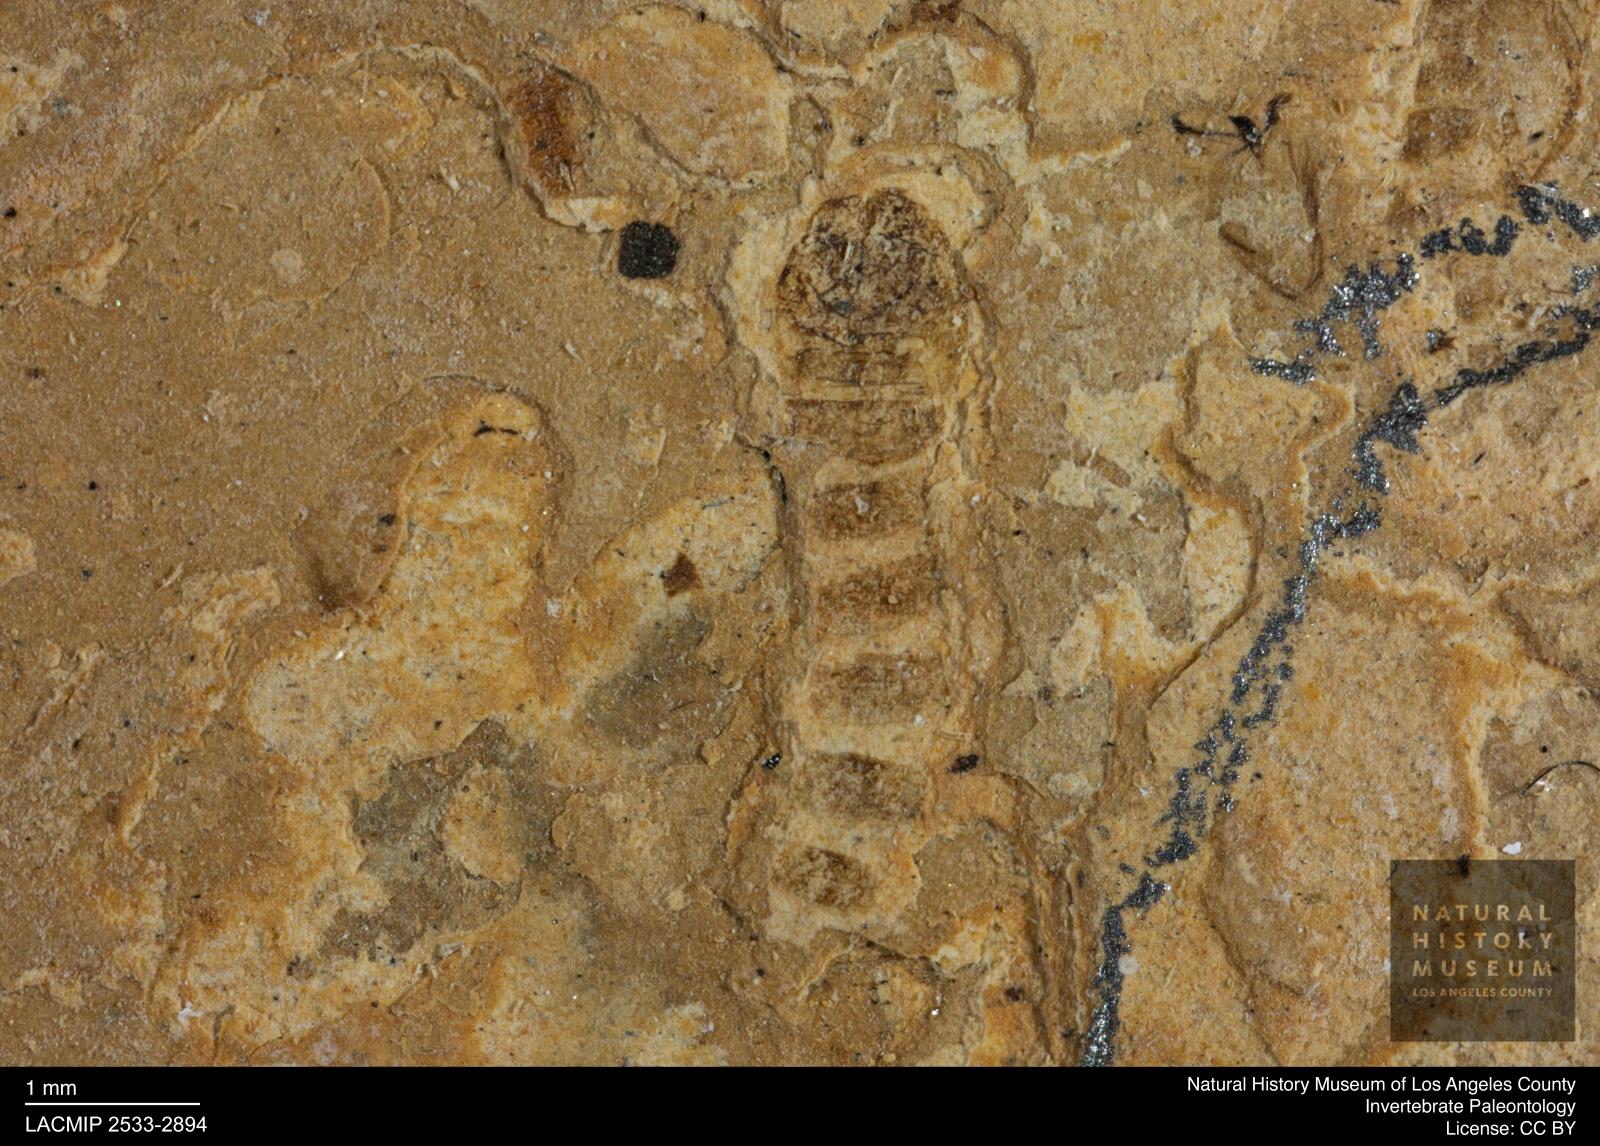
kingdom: Animalia
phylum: Arthropoda
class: Insecta
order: Diptera
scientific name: Diptera
